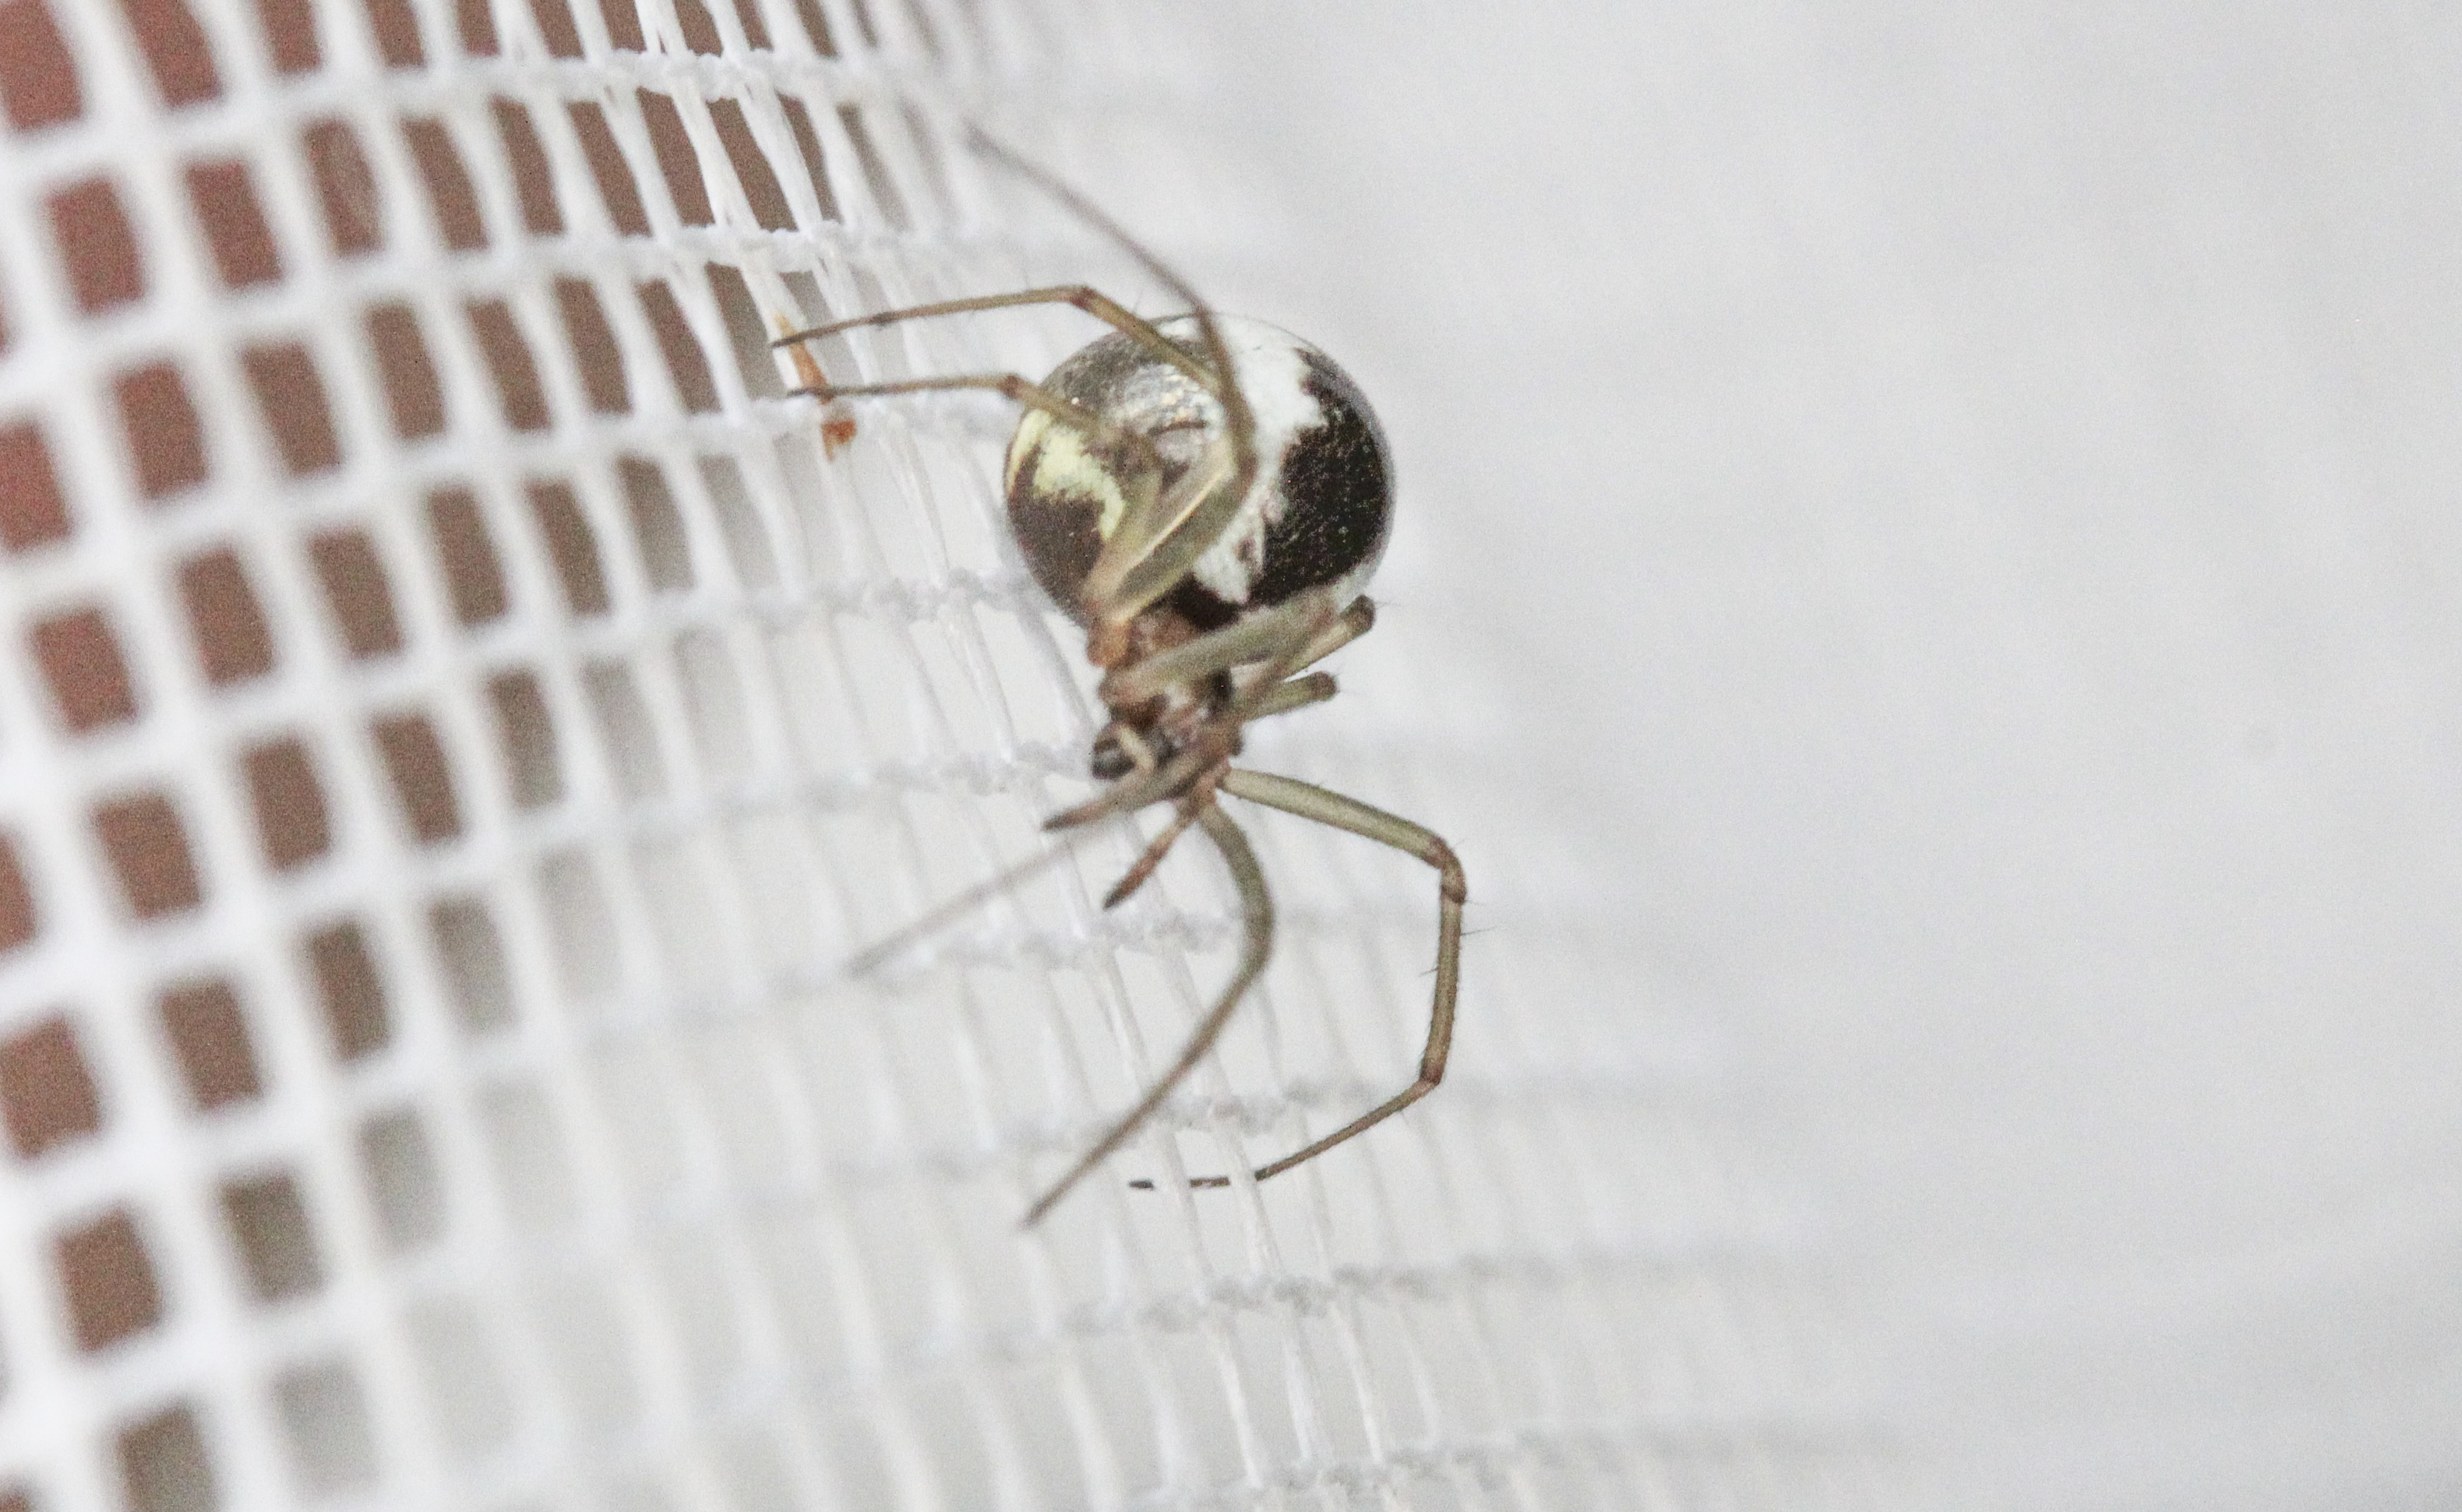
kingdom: Animalia
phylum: Arthropoda
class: Arachnida
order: Araneae
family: Theridiidae
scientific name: Theridiidae
